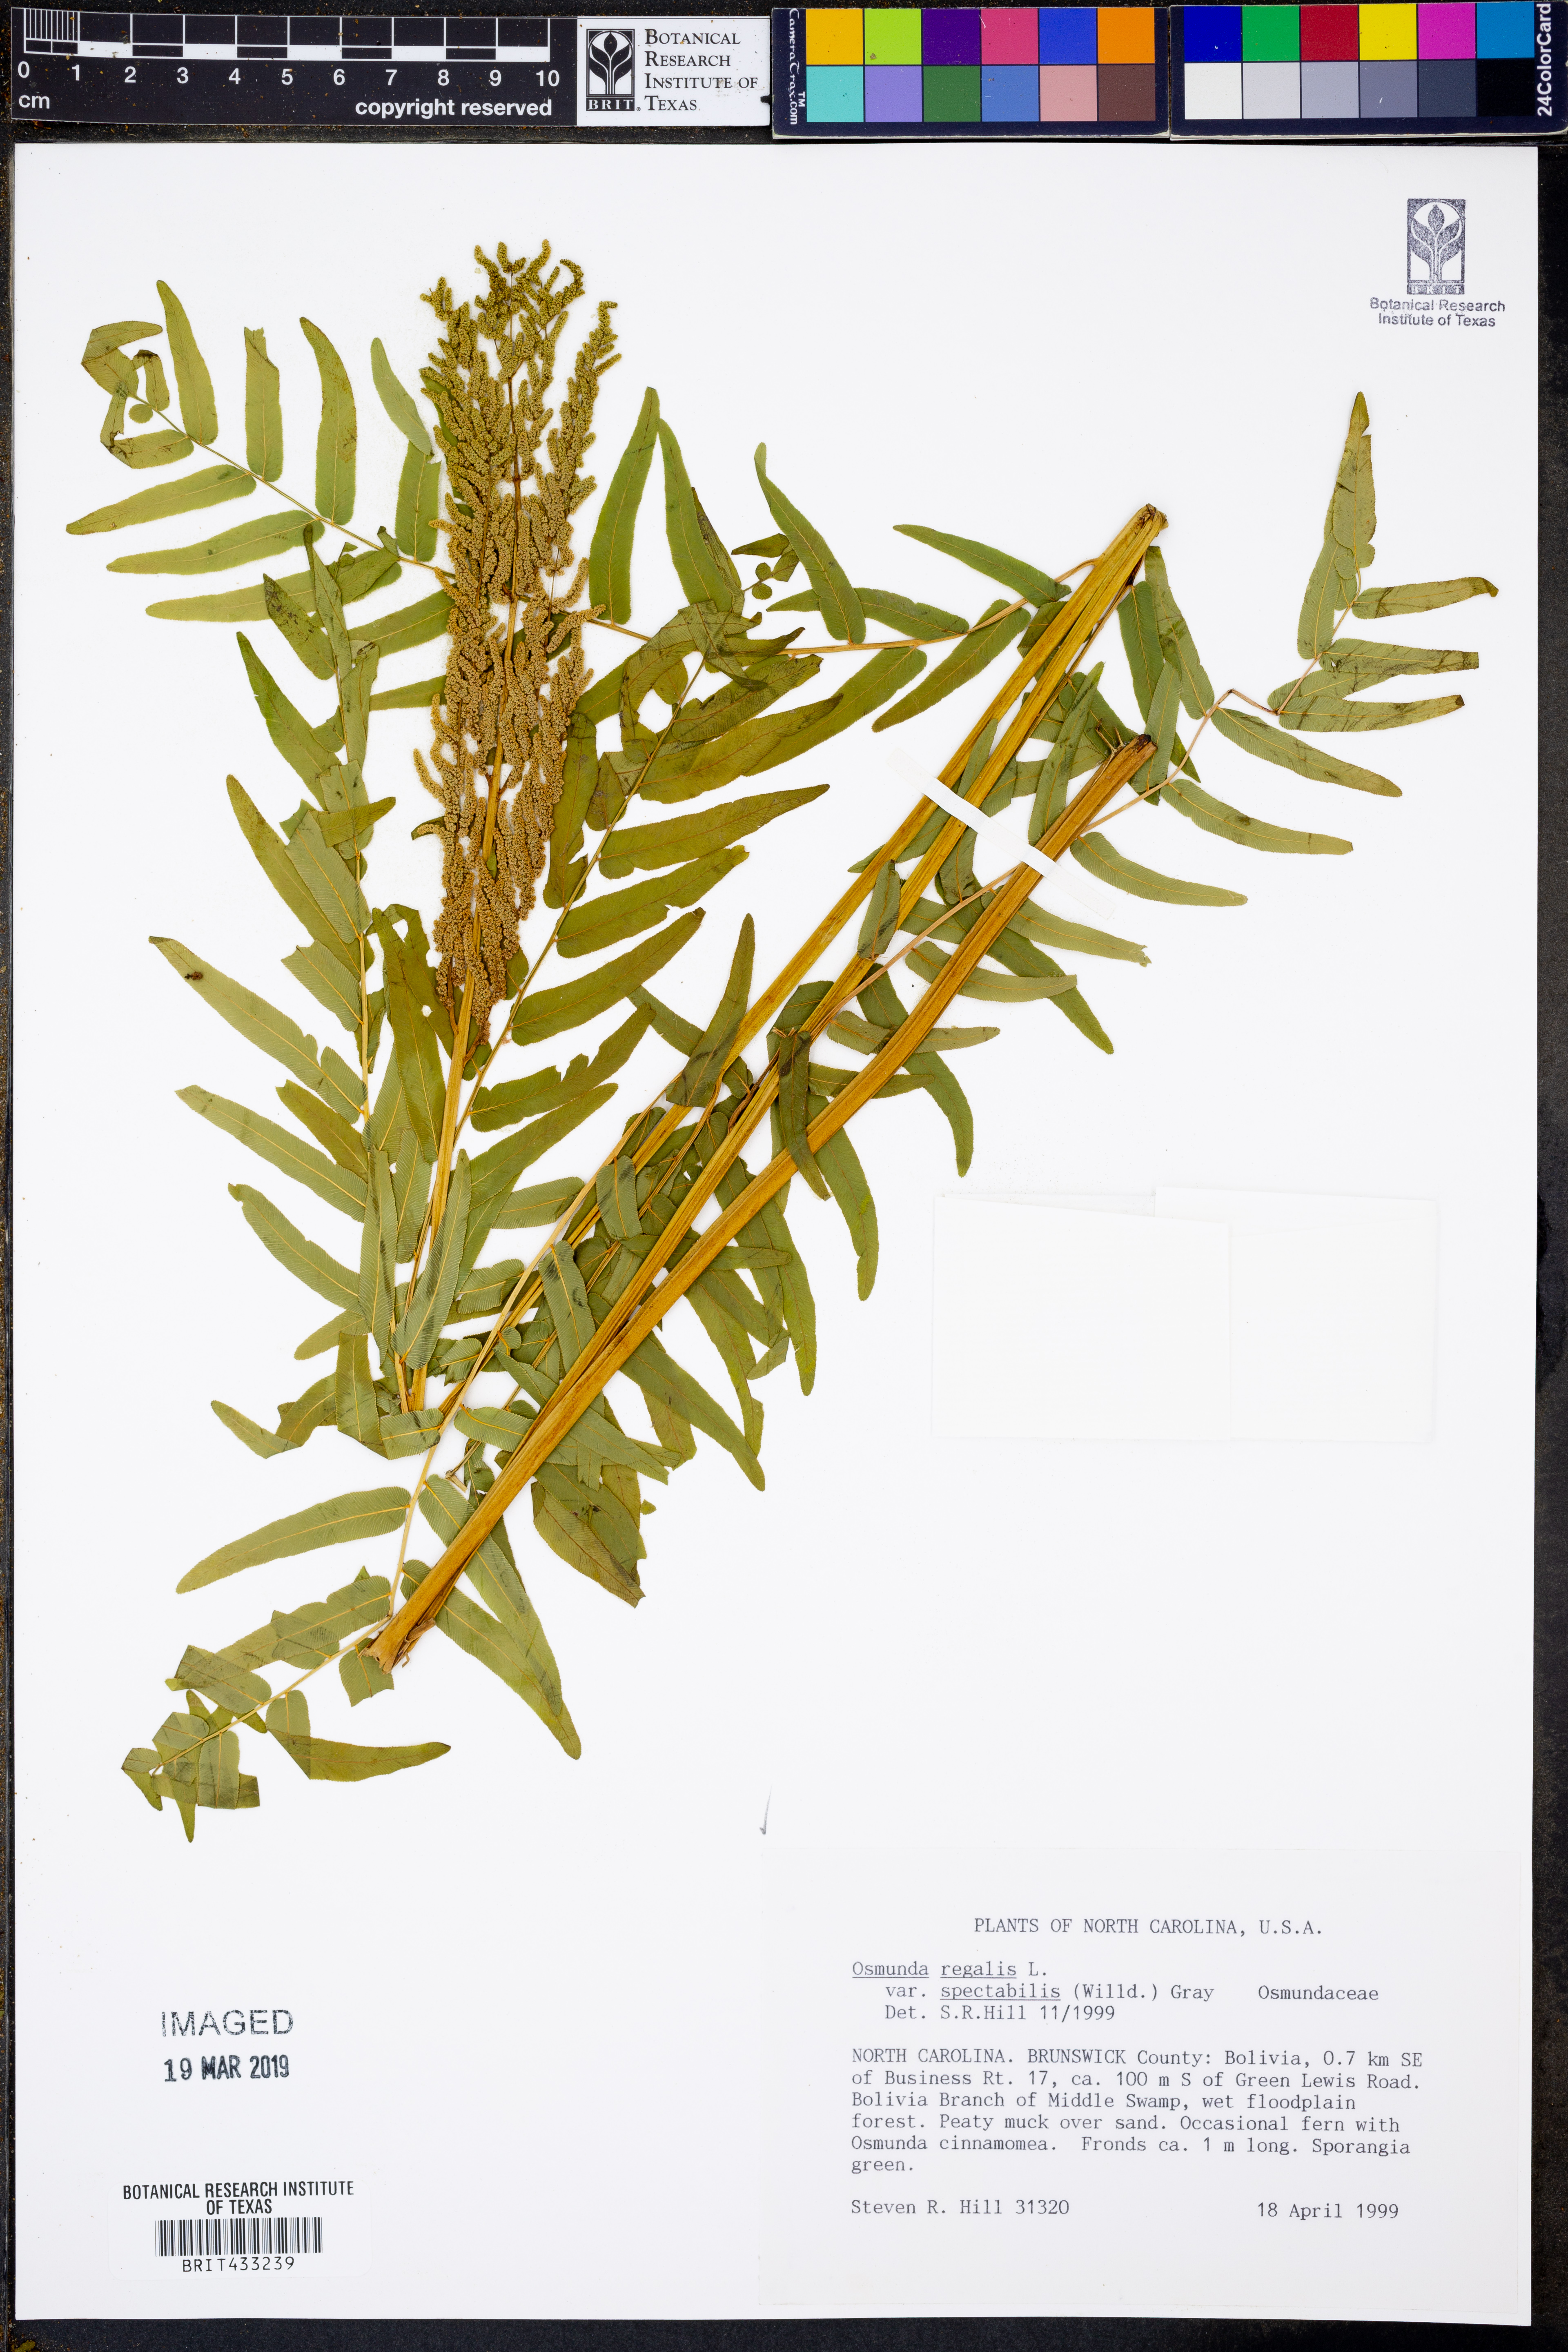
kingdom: Plantae
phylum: Tracheophyta
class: Polypodiopsida
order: Osmundales
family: Osmundaceae
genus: Osmunda
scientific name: Osmunda spectabilis
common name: American royal fern
